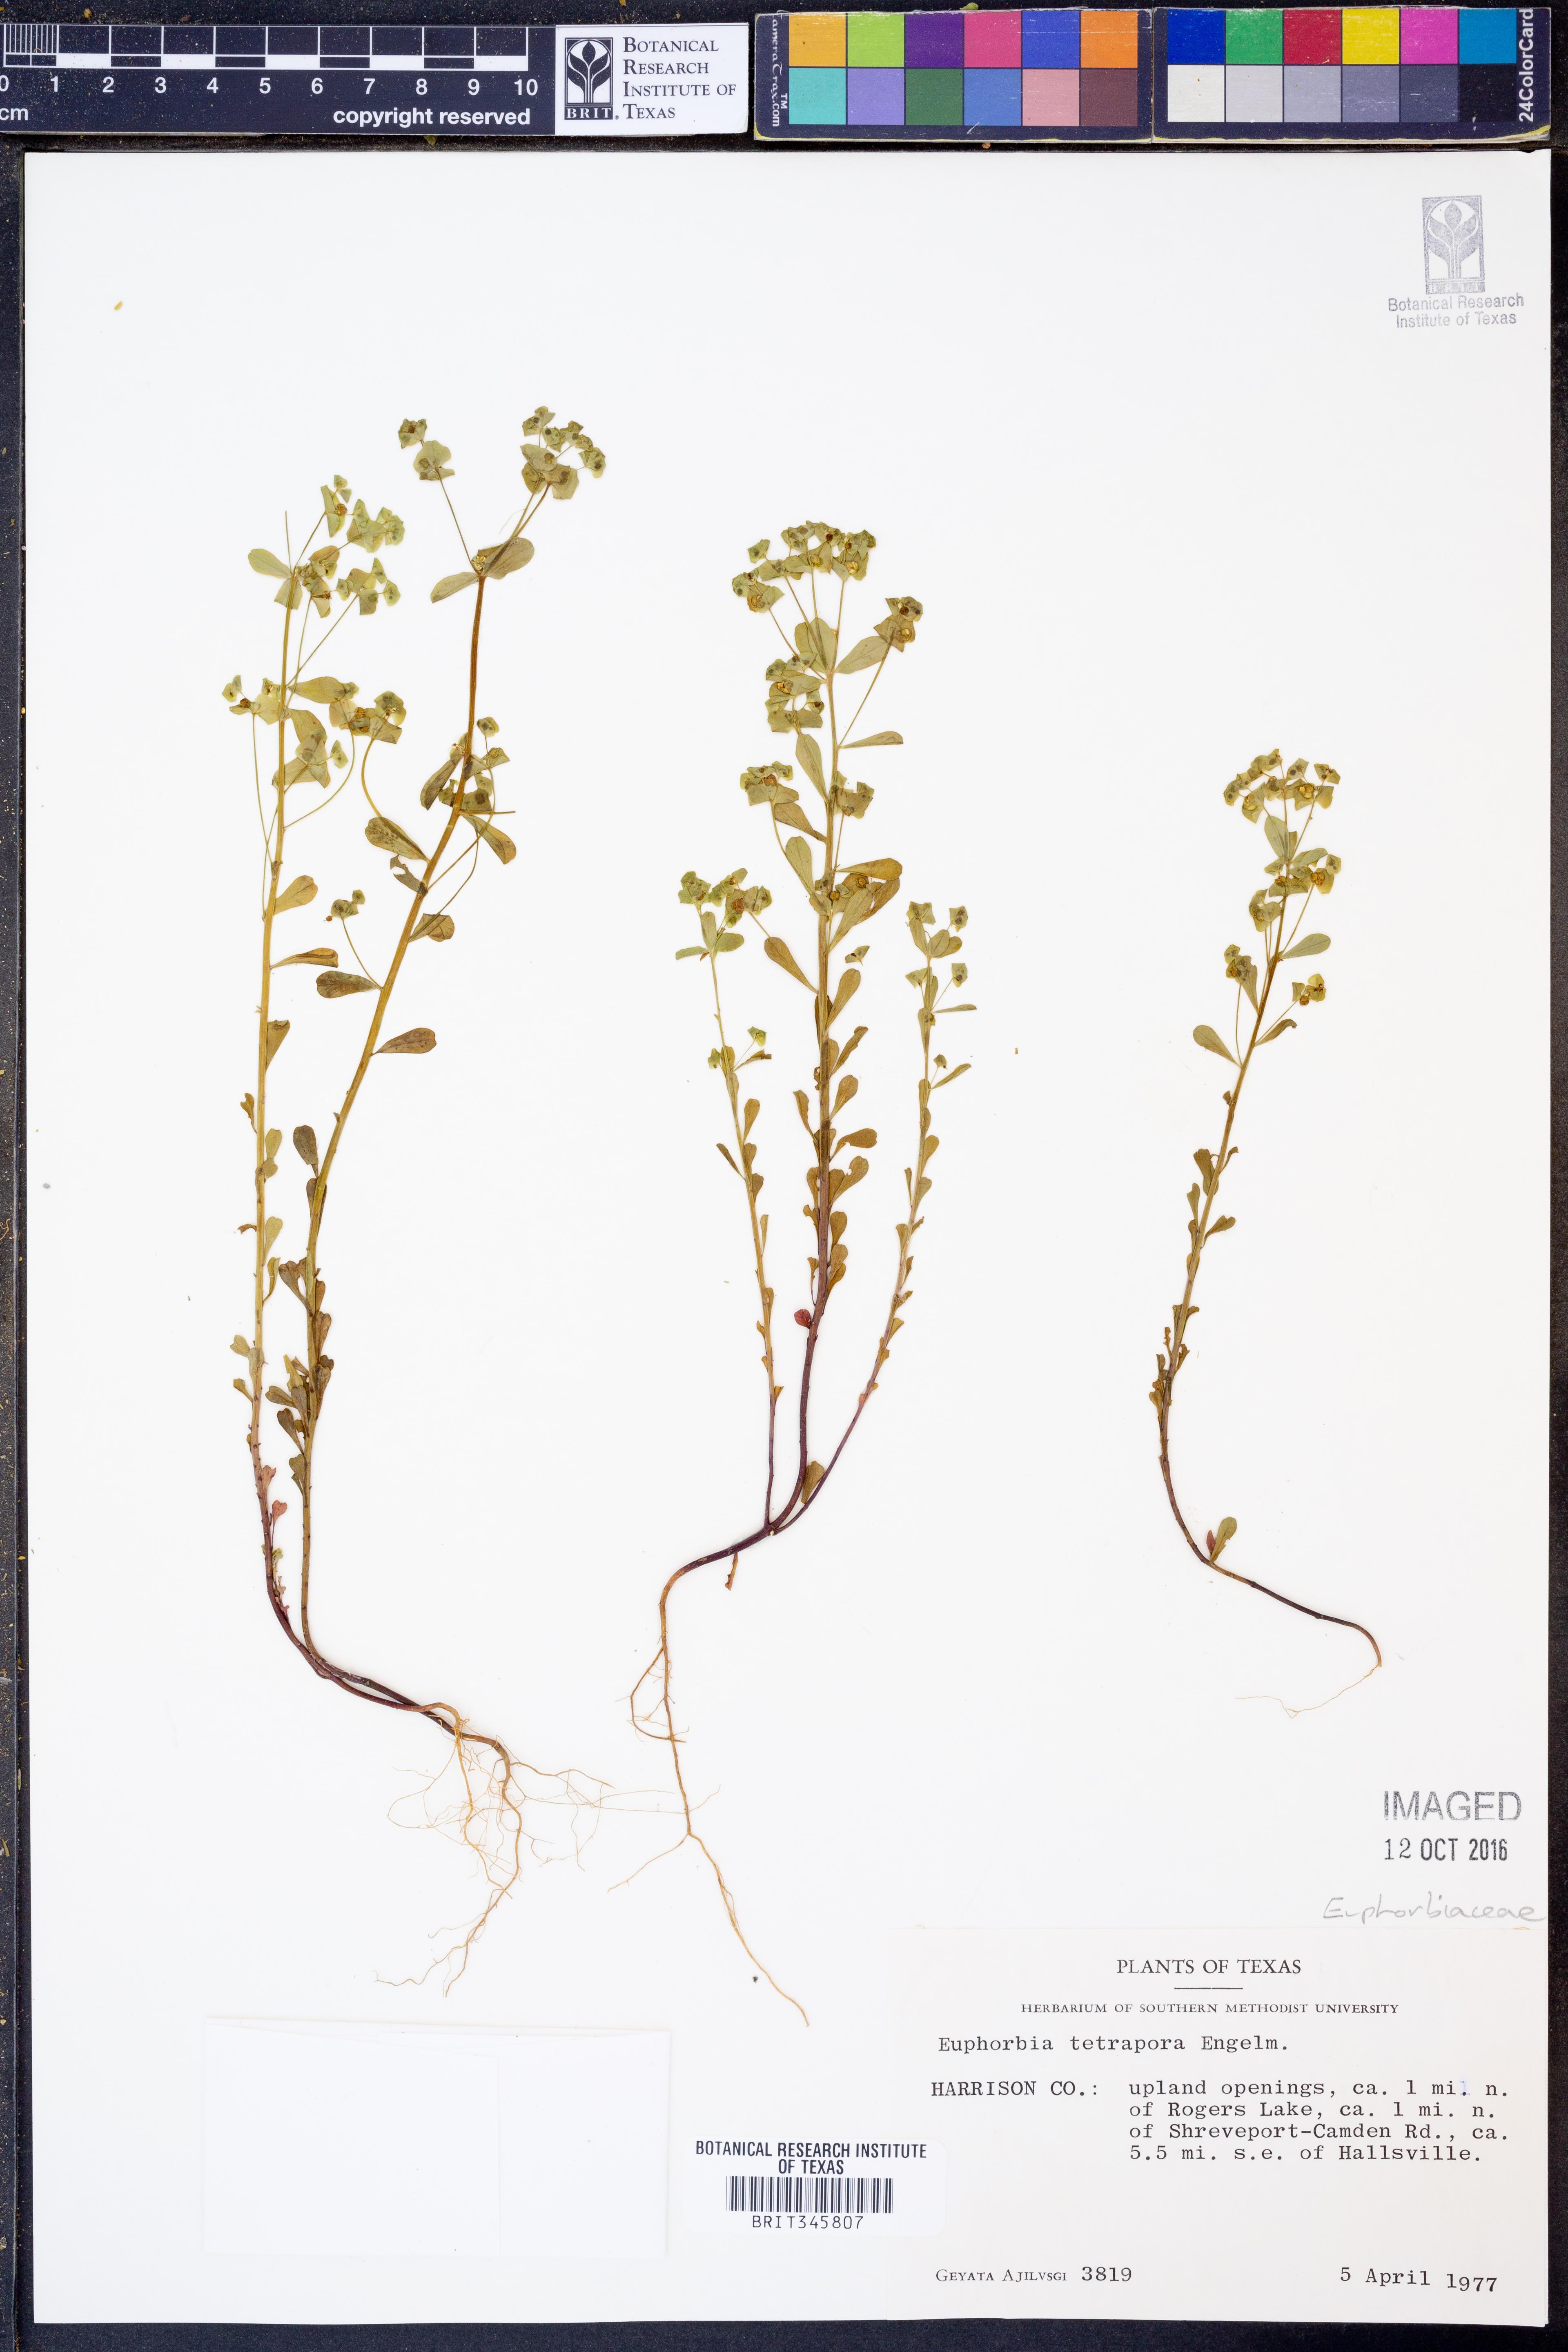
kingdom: Plantae
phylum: Tracheophyta
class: Magnoliopsida
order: Malpighiales
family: Euphorbiaceae
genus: Euphorbia
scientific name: Euphorbia tetrapora
